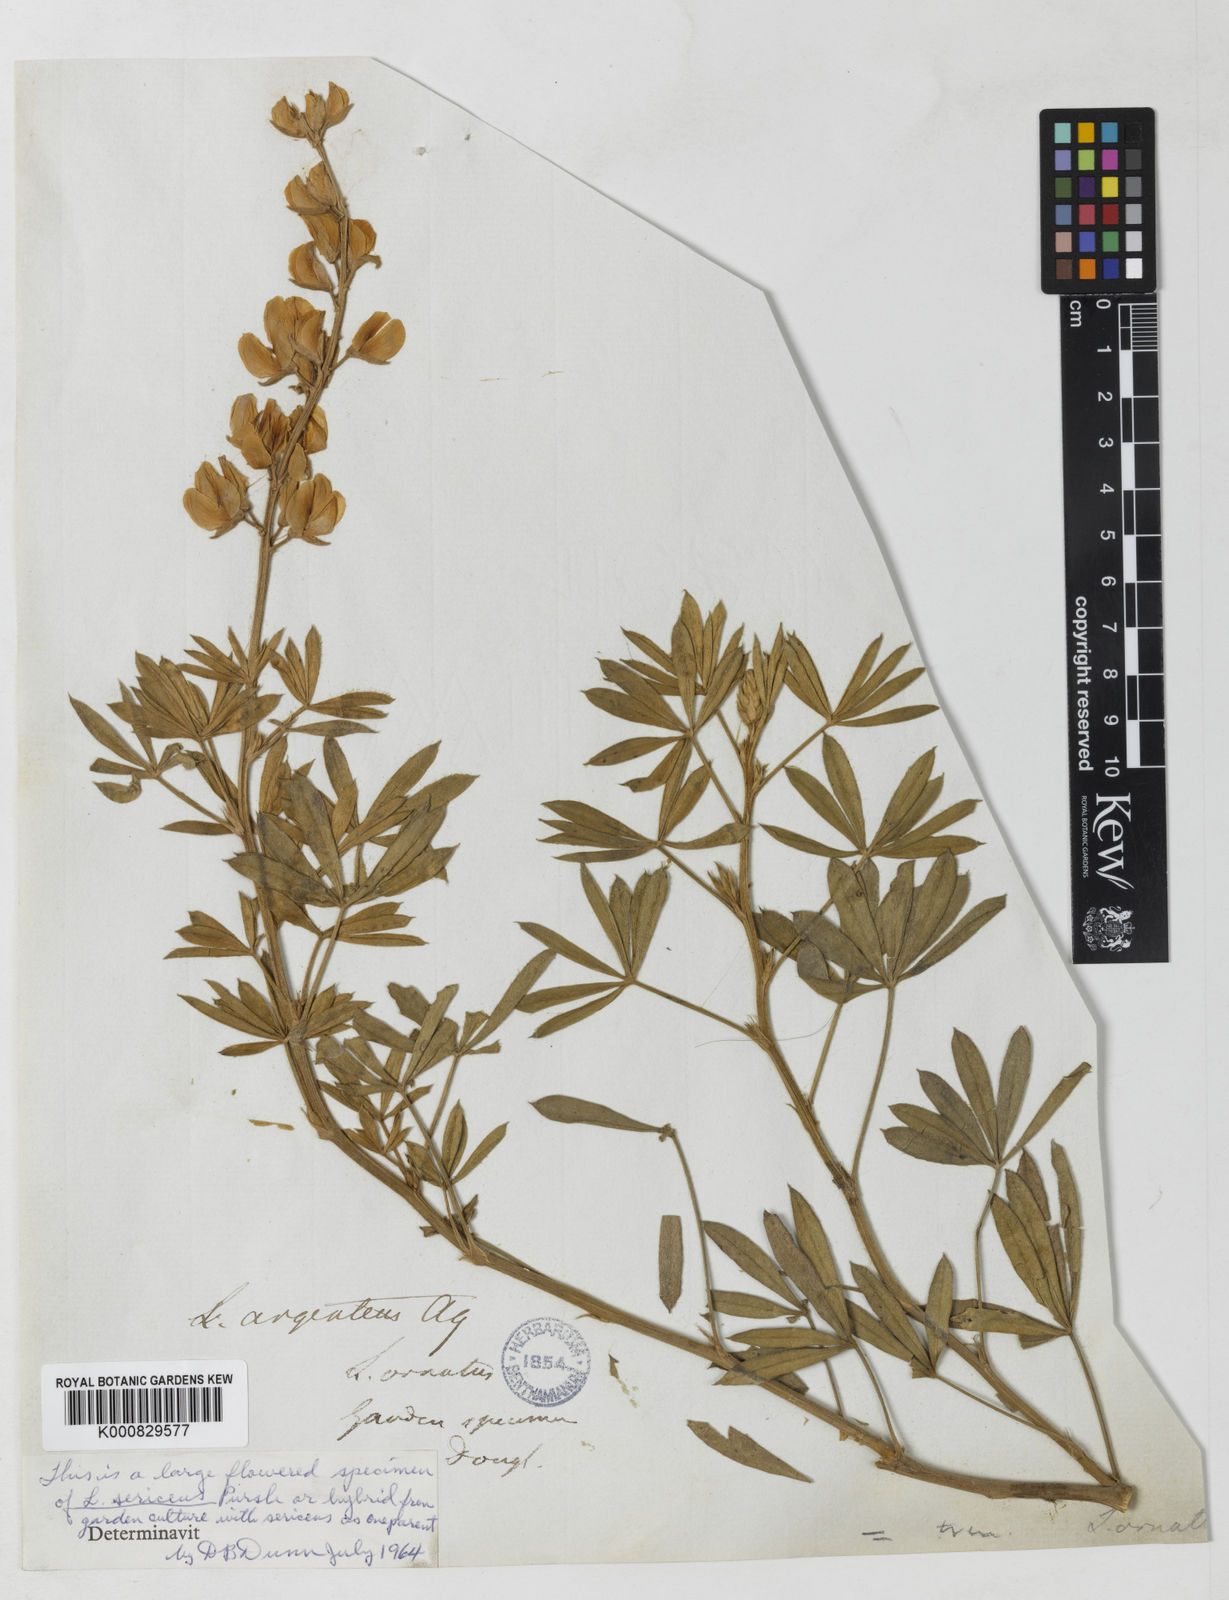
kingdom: Plantae
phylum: Tracheophyta
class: Magnoliopsida
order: Fabales
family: Fabaceae
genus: Lupinus
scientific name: Lupinus ornatus
